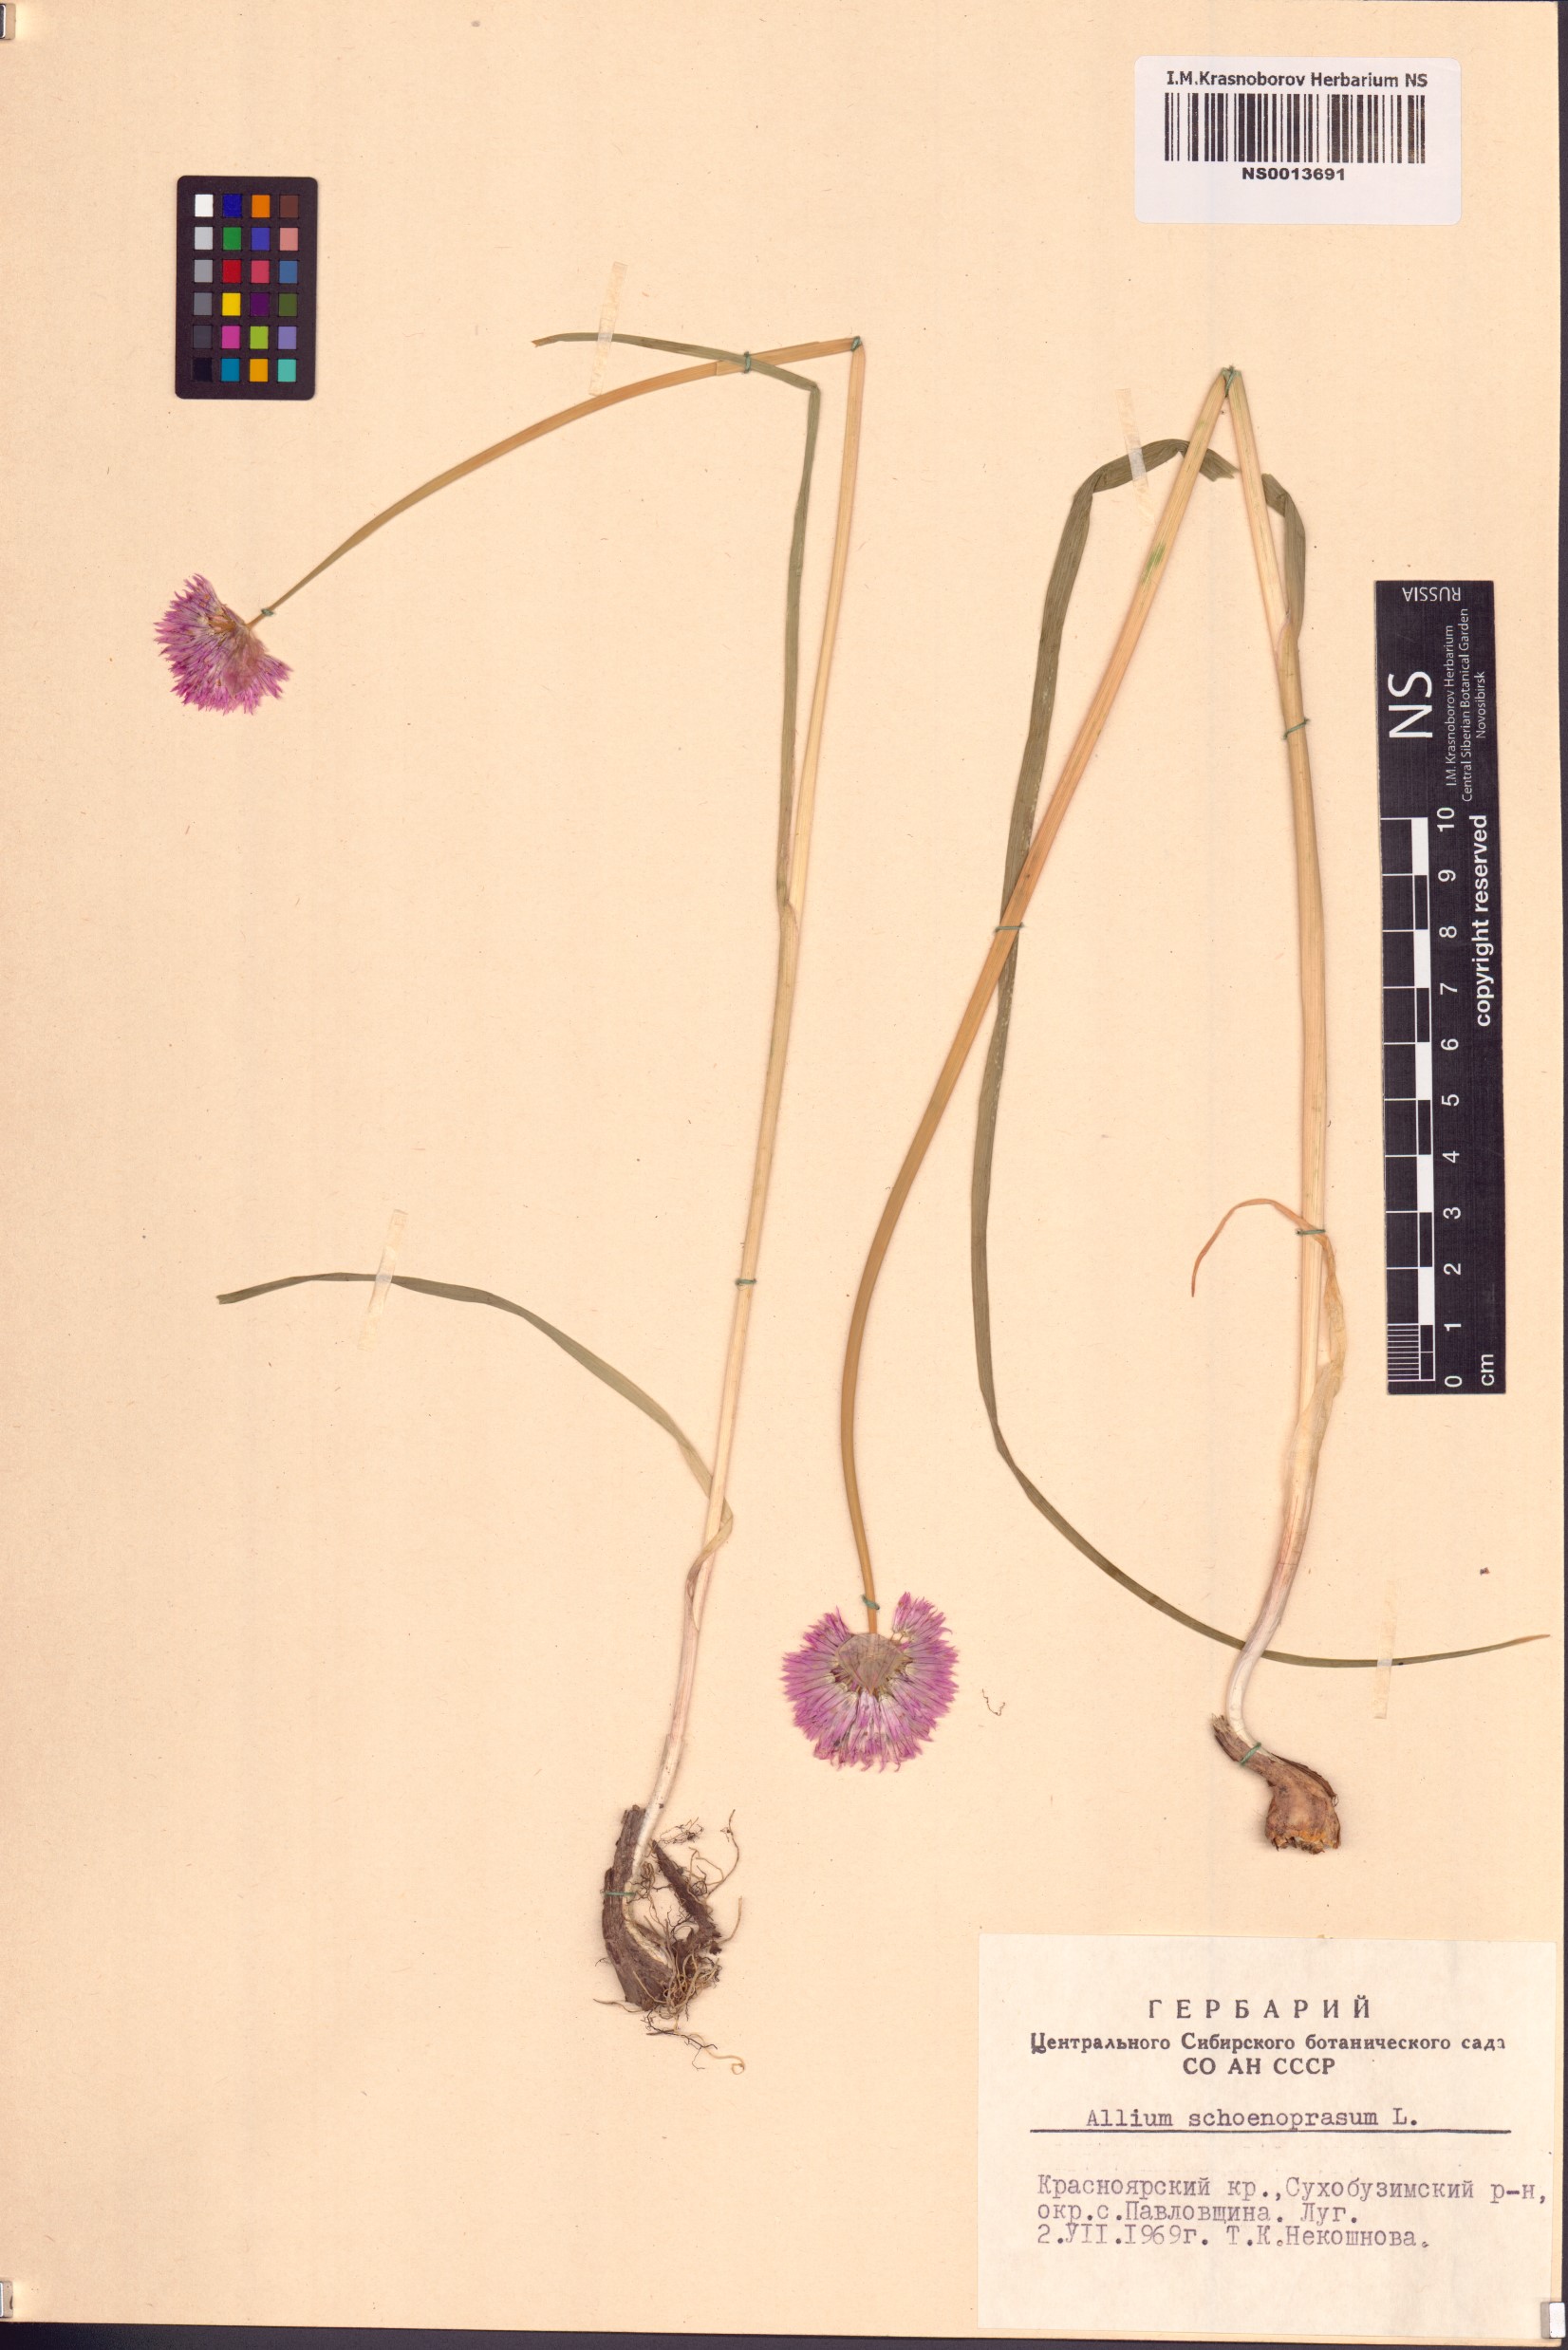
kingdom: Plantae
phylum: Tracheophyta
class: Liliopsida
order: Asparagales
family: Amaryllidaceae
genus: Allium
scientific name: Allium schoenoprasum
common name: Chives
